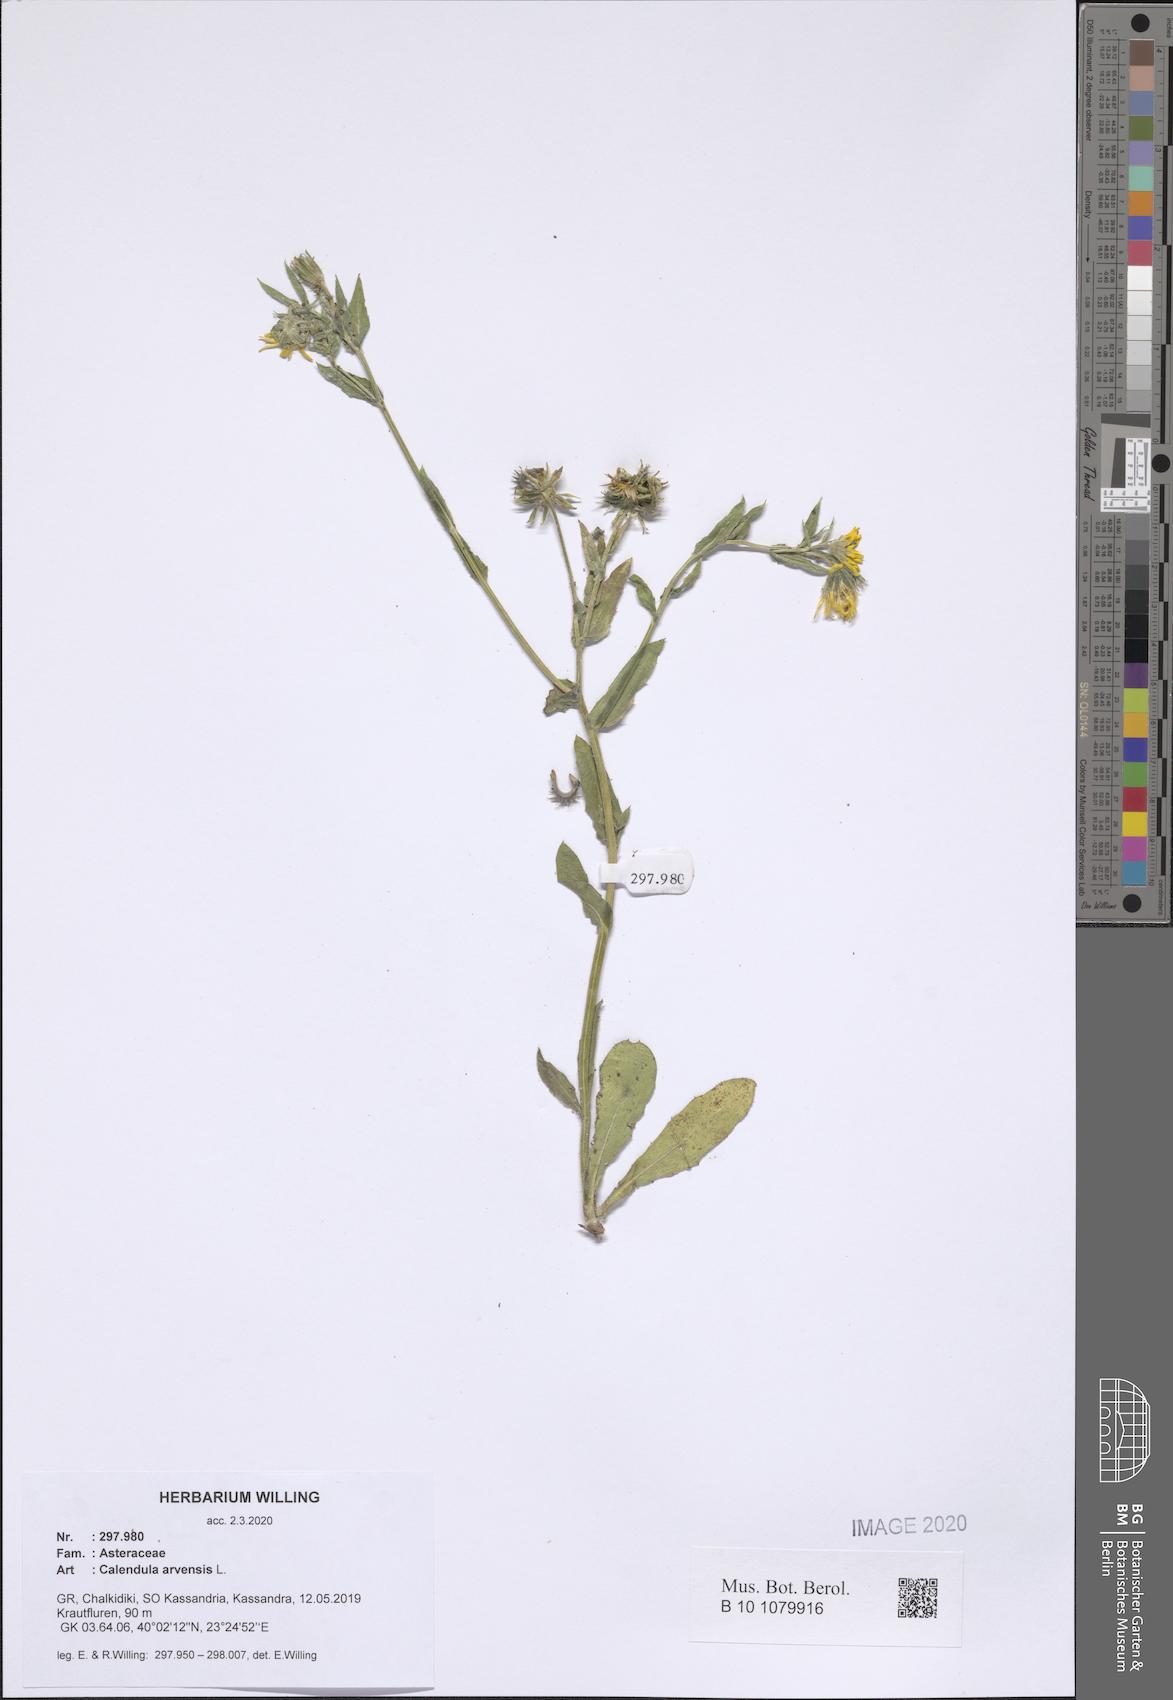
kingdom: Plantae
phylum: Tracheophyta
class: Magnoliopsida
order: Asterales
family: Asteraceae
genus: Calendula
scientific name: Calendula arvensis
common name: Field marigold
